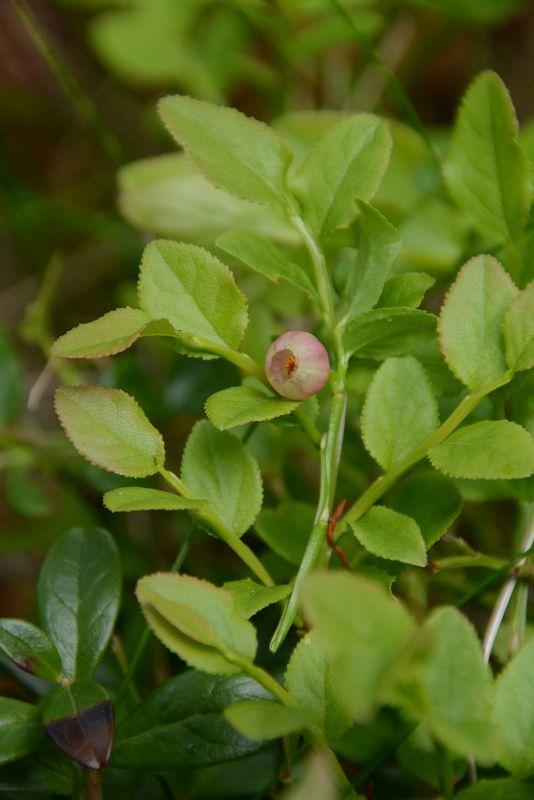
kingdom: Plantae
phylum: Tracheophyta
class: Magnoliopsida
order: Ericales
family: Ericaceae
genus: Vaccinium
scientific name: Vaccinium myrtillus
